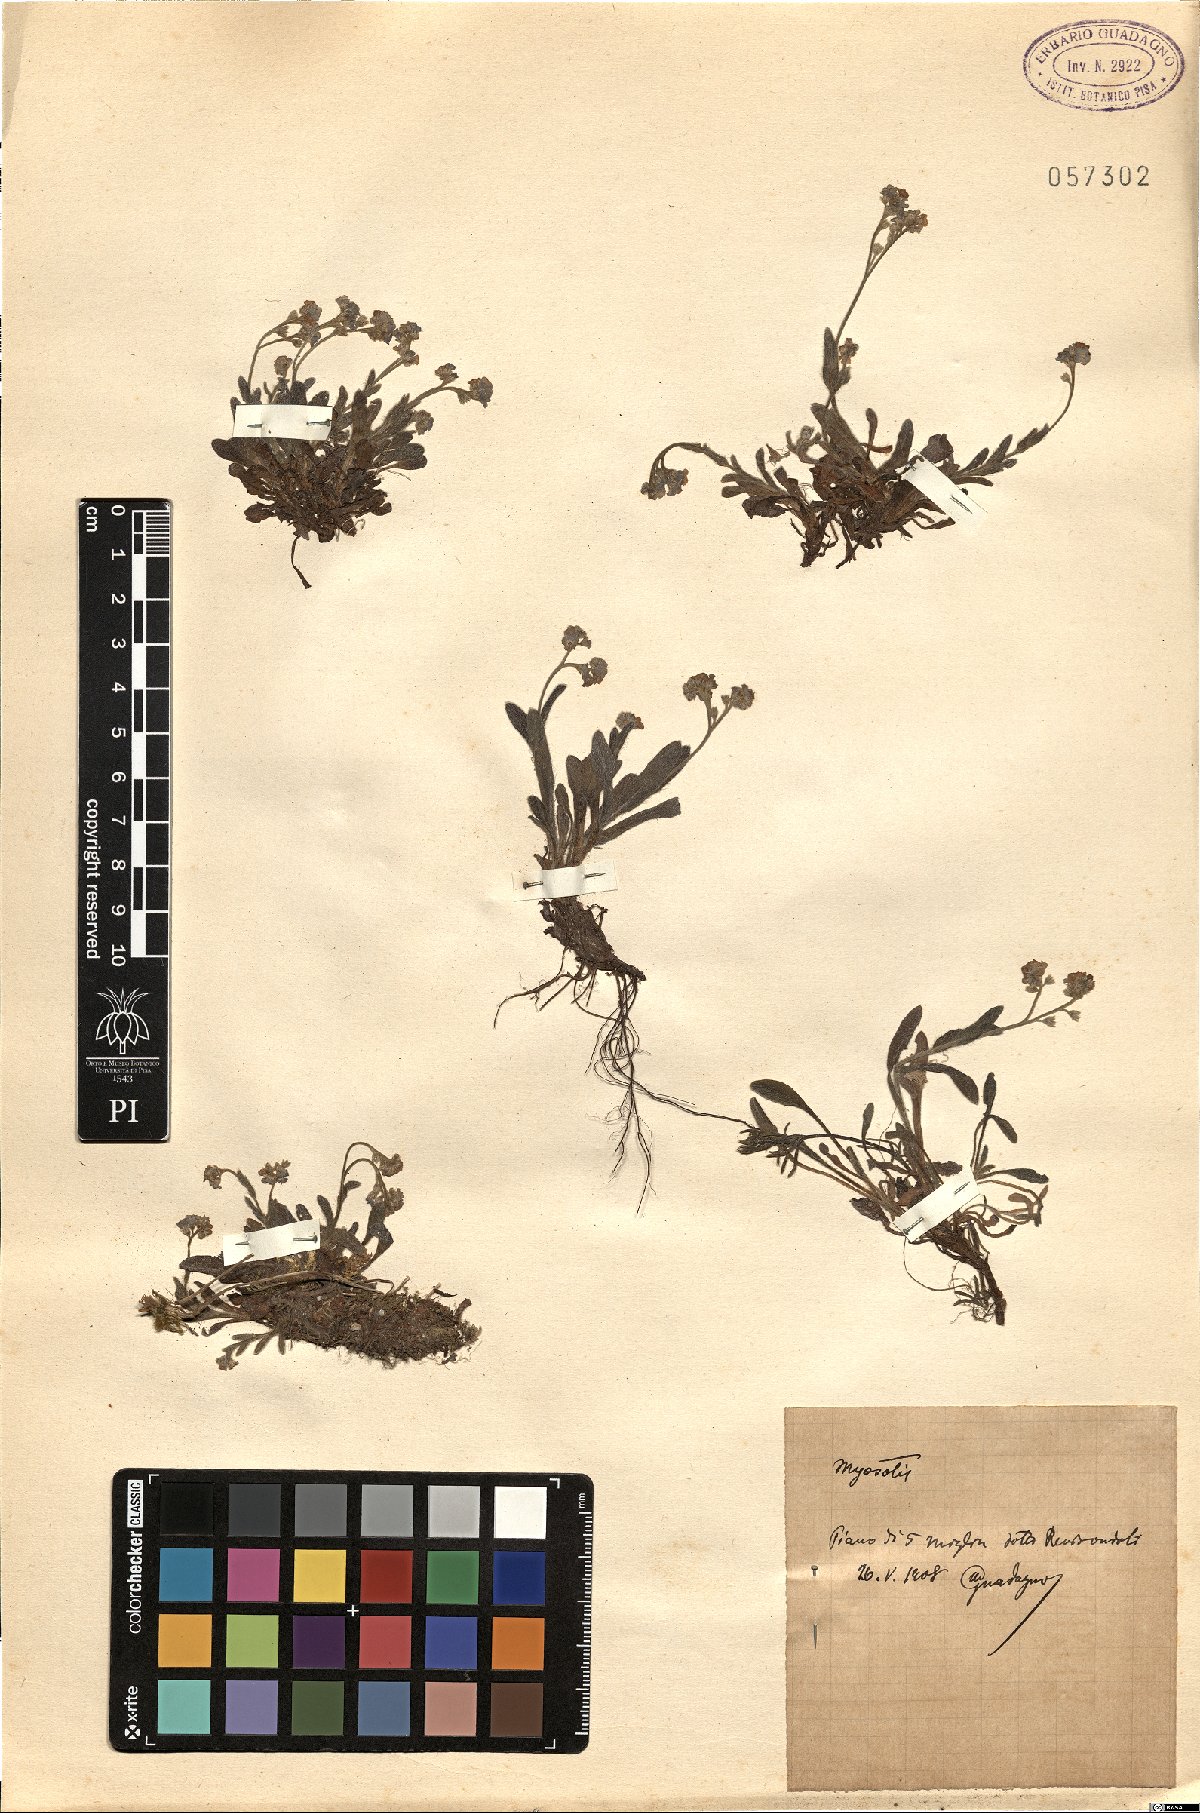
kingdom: Plantae
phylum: Tracheophyta
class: Magnoliopsida
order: Boraginales
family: Boraginaceae
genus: Myosotis
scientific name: Myosotis
